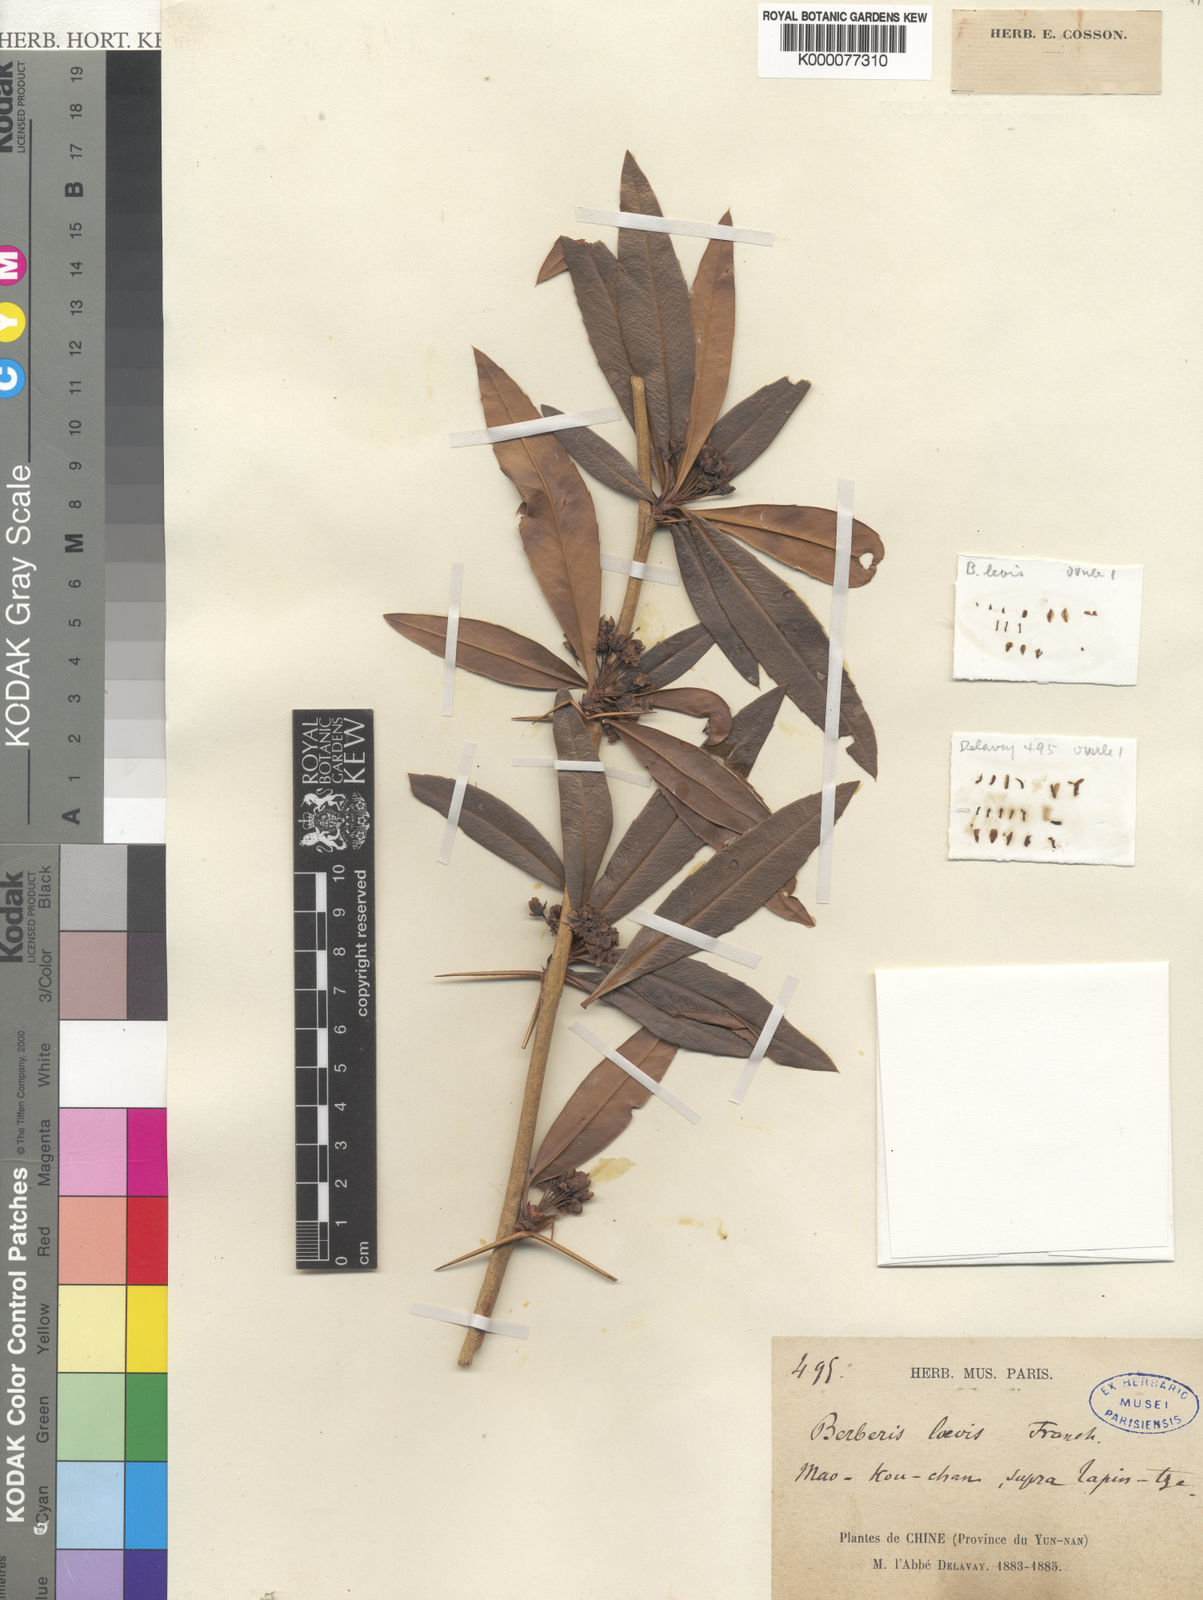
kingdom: Plantae
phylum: Tracheophyta
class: Magnoliopsida
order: Ranunculales
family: Berberidaceae
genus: Berberis
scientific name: Berberis levis
